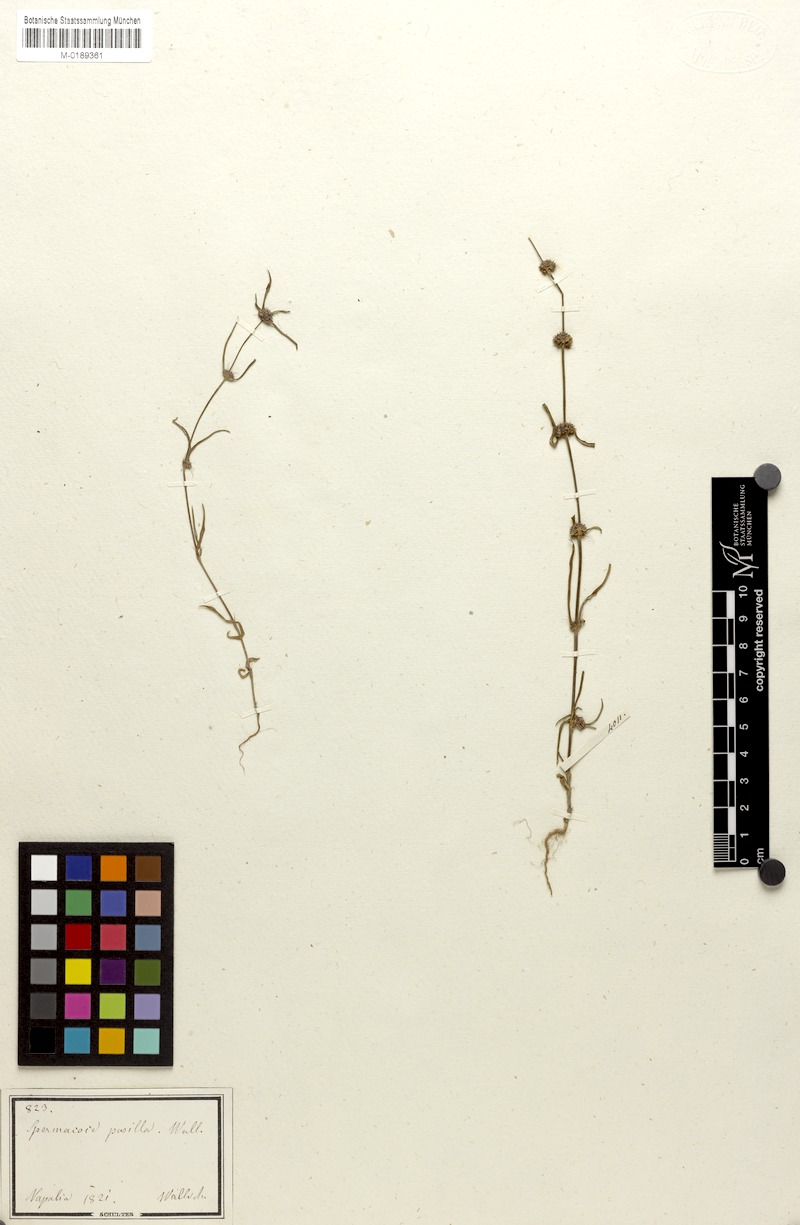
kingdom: Plantae
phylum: Tracheophyta
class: Magnoliopsida
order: Gentianales
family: Rubiaceae
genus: Spermacoce
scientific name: Spermacoce pusilla
